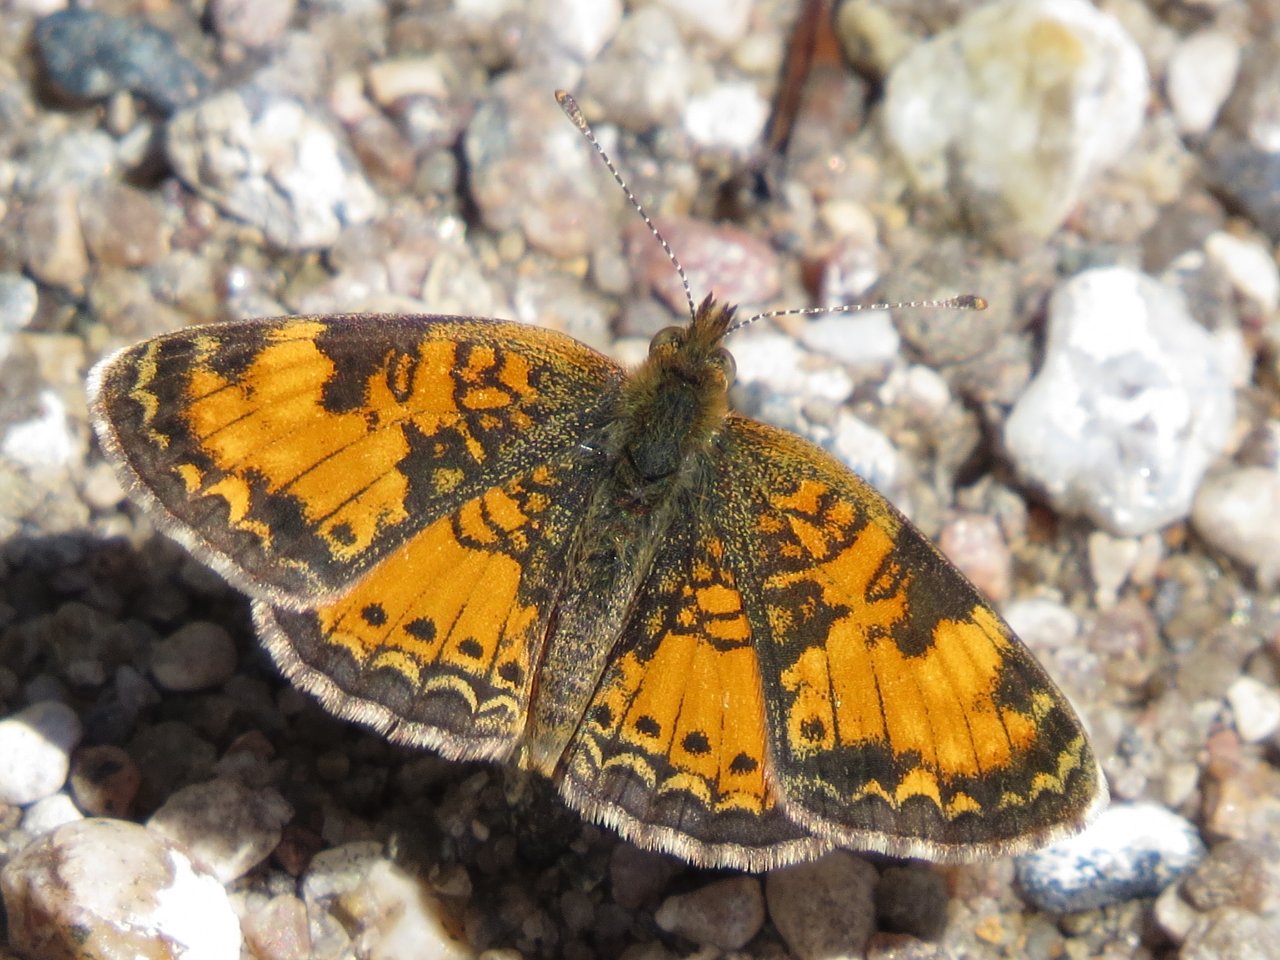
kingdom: Animalia
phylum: Arthropoda
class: Insecta
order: Lepidoptera
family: Nymphalidae
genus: Phyciodes
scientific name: Phyciodes tharos
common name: Northern Crescent
